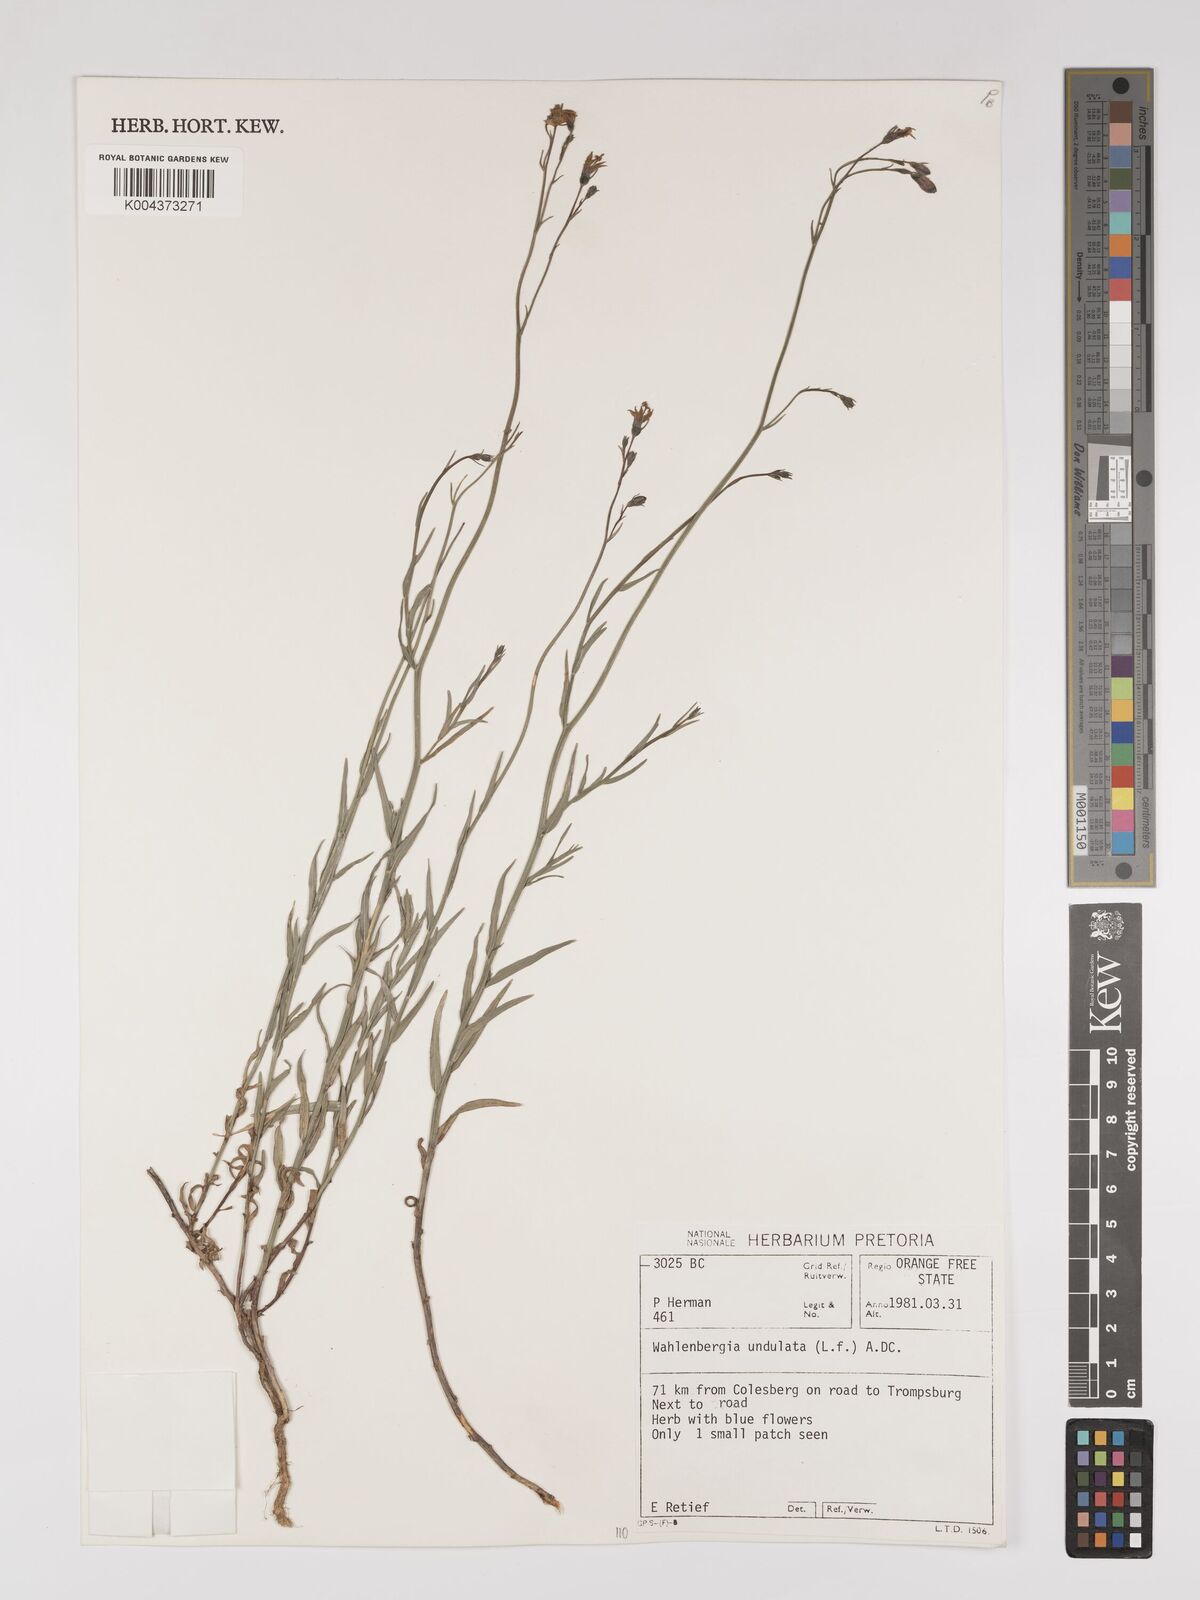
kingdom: Plantae
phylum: Tracheophyta
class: Magnoliopsida
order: Asterales
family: Campanulaceae
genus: Wahlenbergia
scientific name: Wahlenbergia undulata
